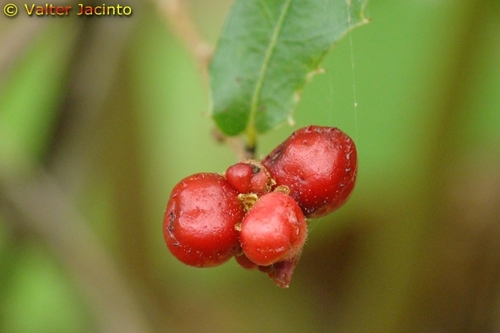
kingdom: Plantae
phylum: Tracheophyta
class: Magnoliopsida
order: Fagales
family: Fagaceae
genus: Quercus
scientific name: Quercus coccifera
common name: Kermes oak
